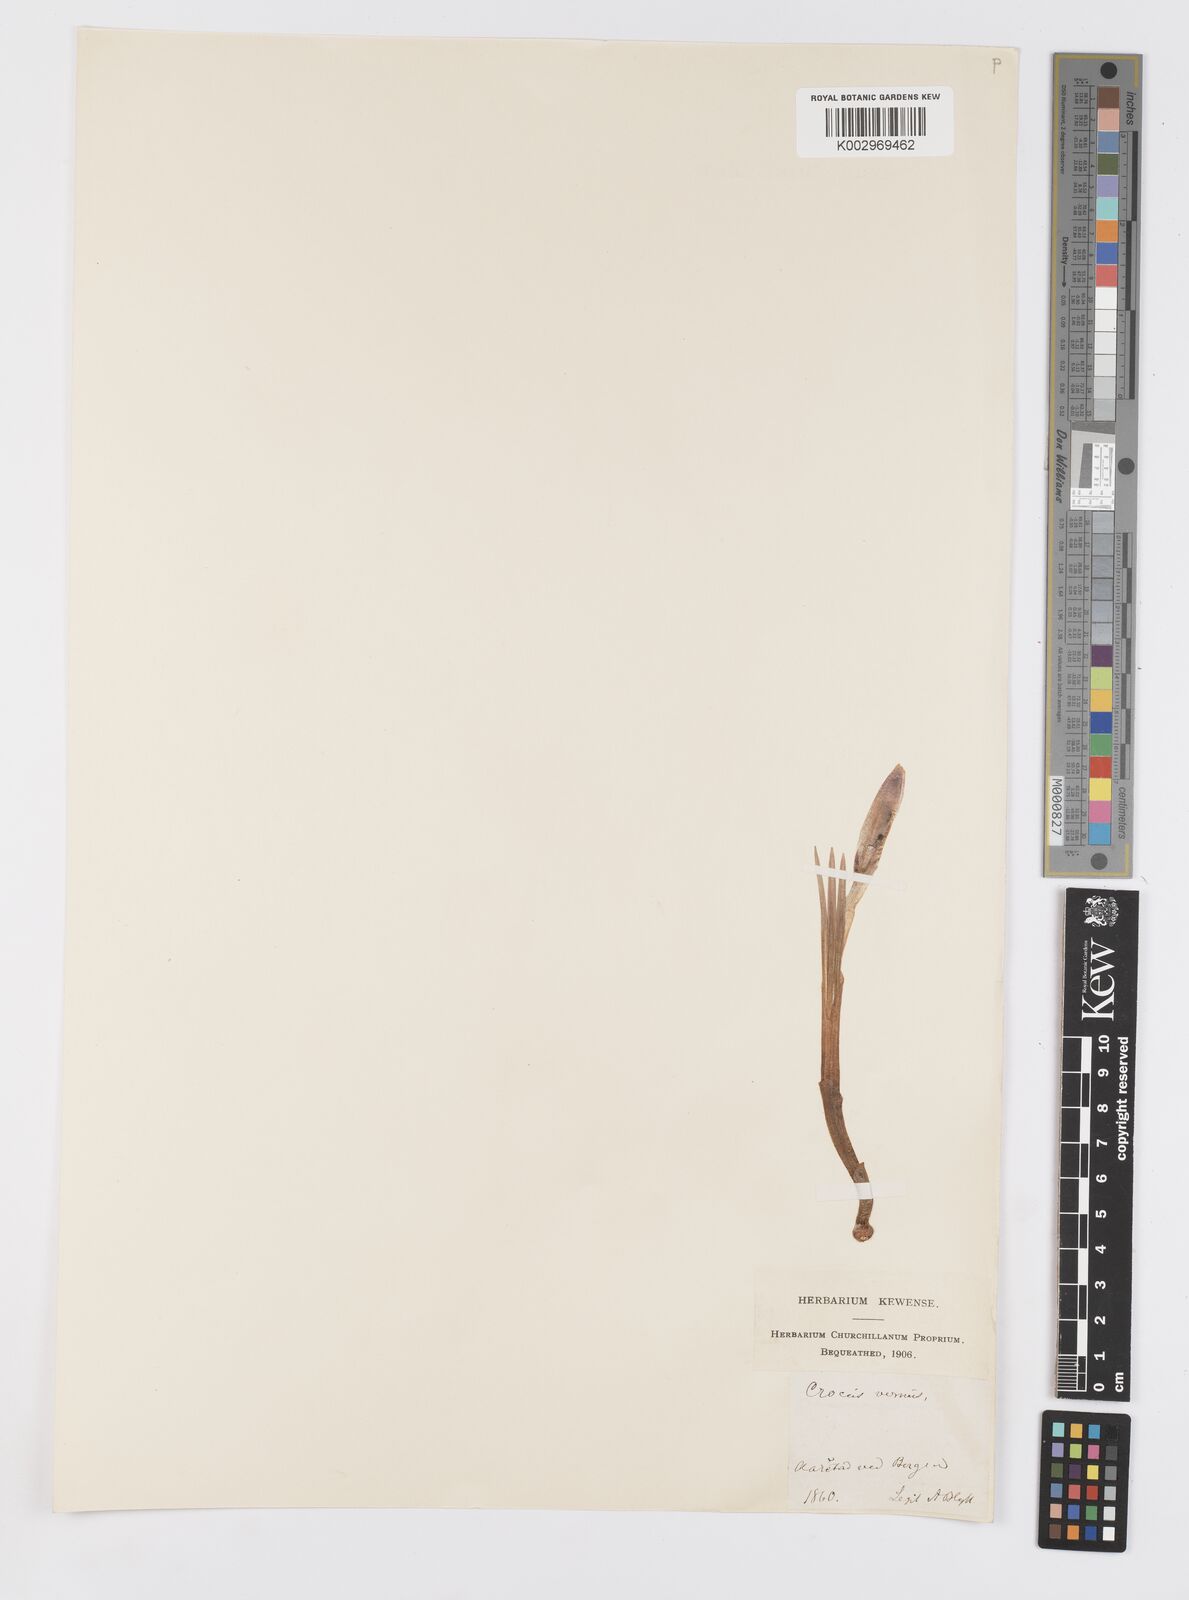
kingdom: Plantae
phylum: Tracheophyta
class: Liliopsida
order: Asparagales
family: Iridaceae
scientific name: Iridaceae
